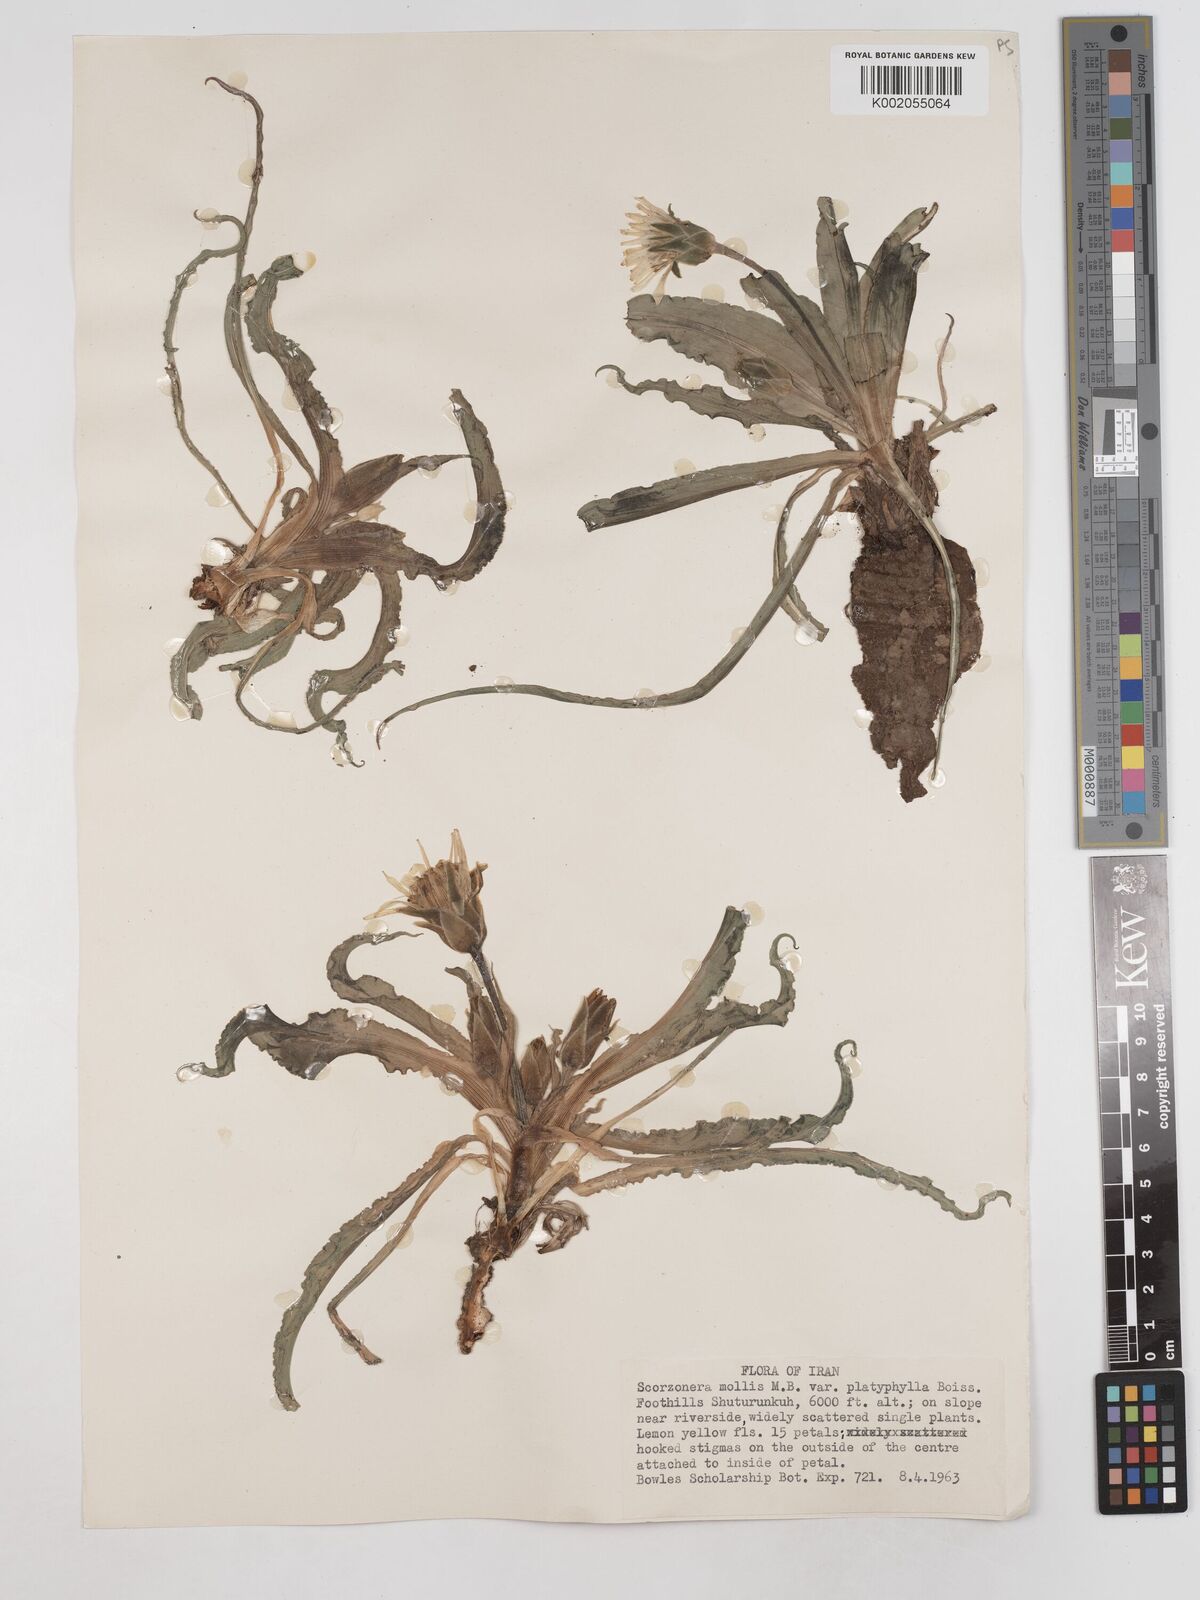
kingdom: Plantae
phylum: Tracheophyta
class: Magnoliopsida
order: Asterales
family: Asteraceae
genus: Candollea
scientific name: Candollea mollis
